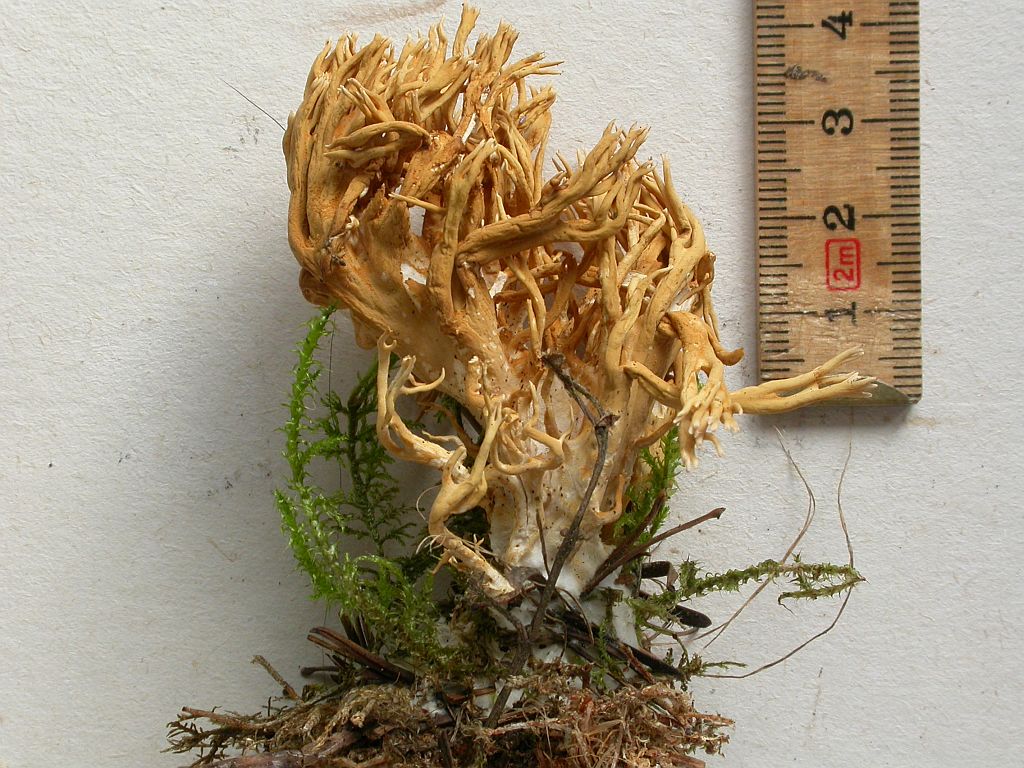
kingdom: Fungi
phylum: Basidiomycota
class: Agaricomycetes
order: Gomphales
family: Gomphaceae
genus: Phaeoclavulina
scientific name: Phaeoclavulina eumorpha
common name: gran-koralsvamp
